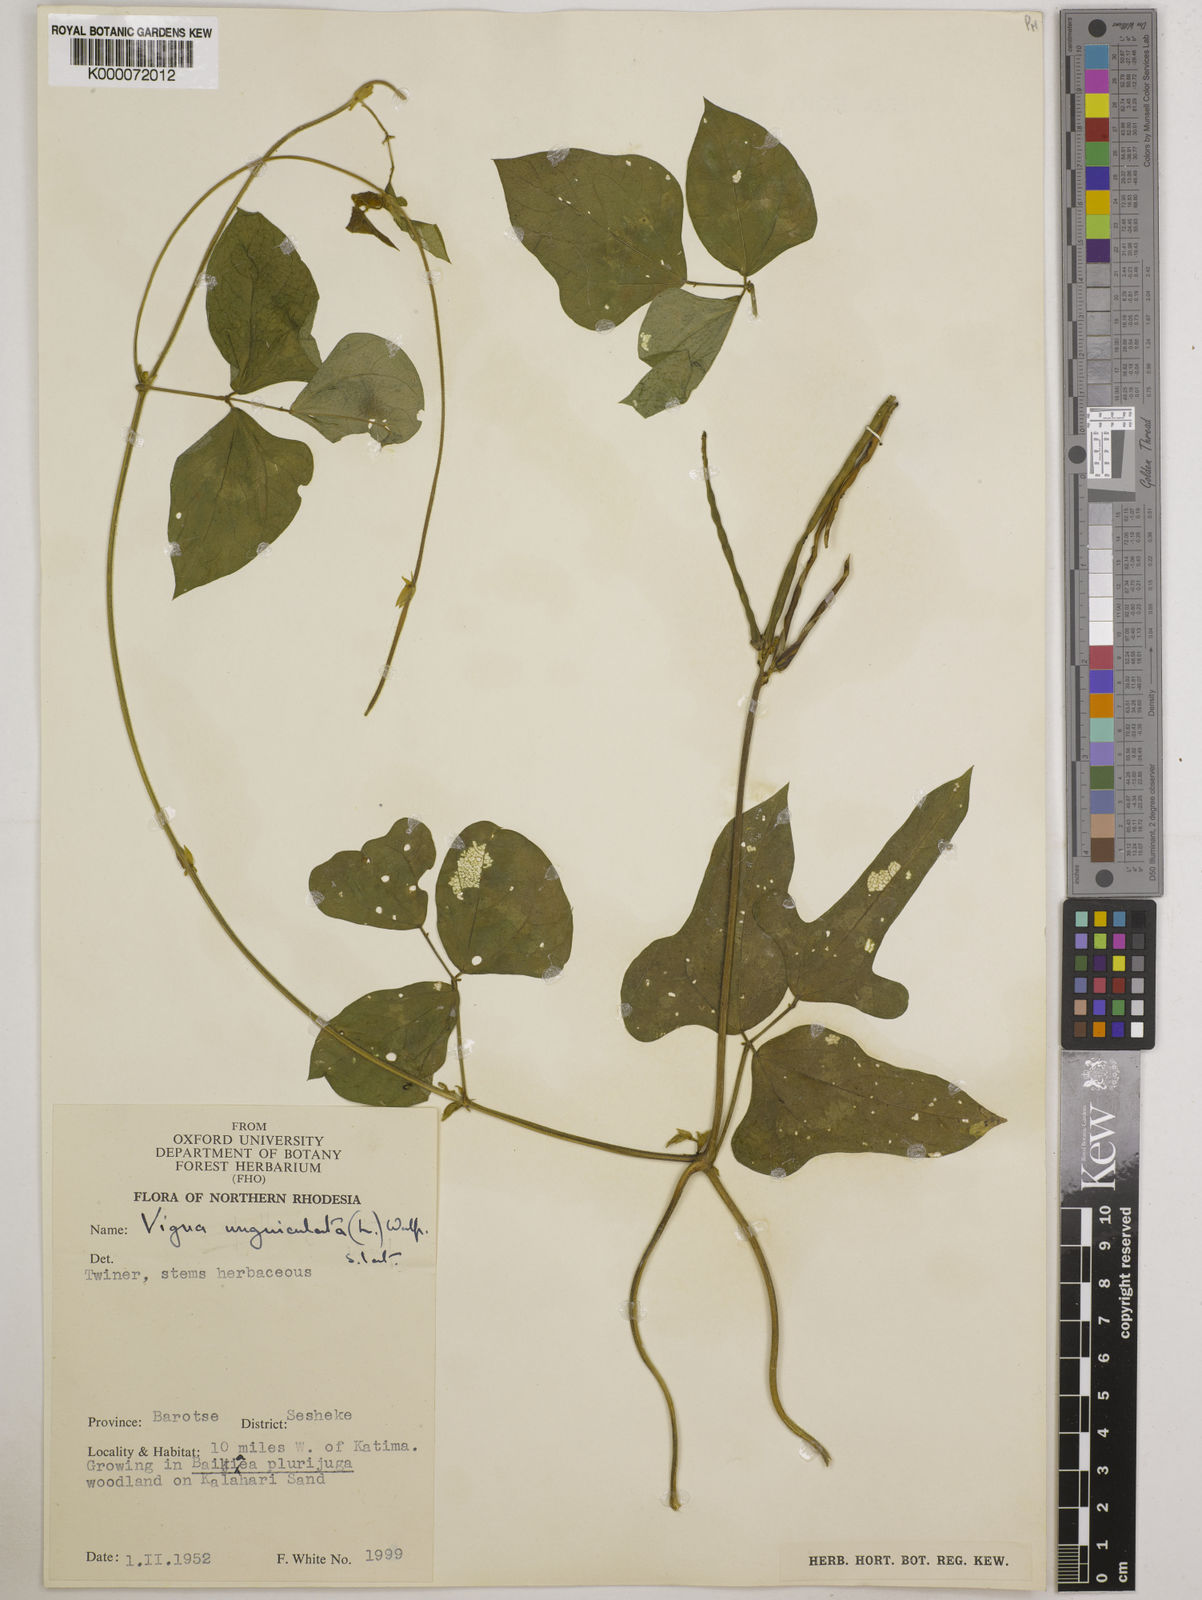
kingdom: Plantae
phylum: Tracheophyta
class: Magnoliopsida
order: Fabales
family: Fabaceae
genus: Vigna
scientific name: Vigna unguiculata
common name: Cowpea
